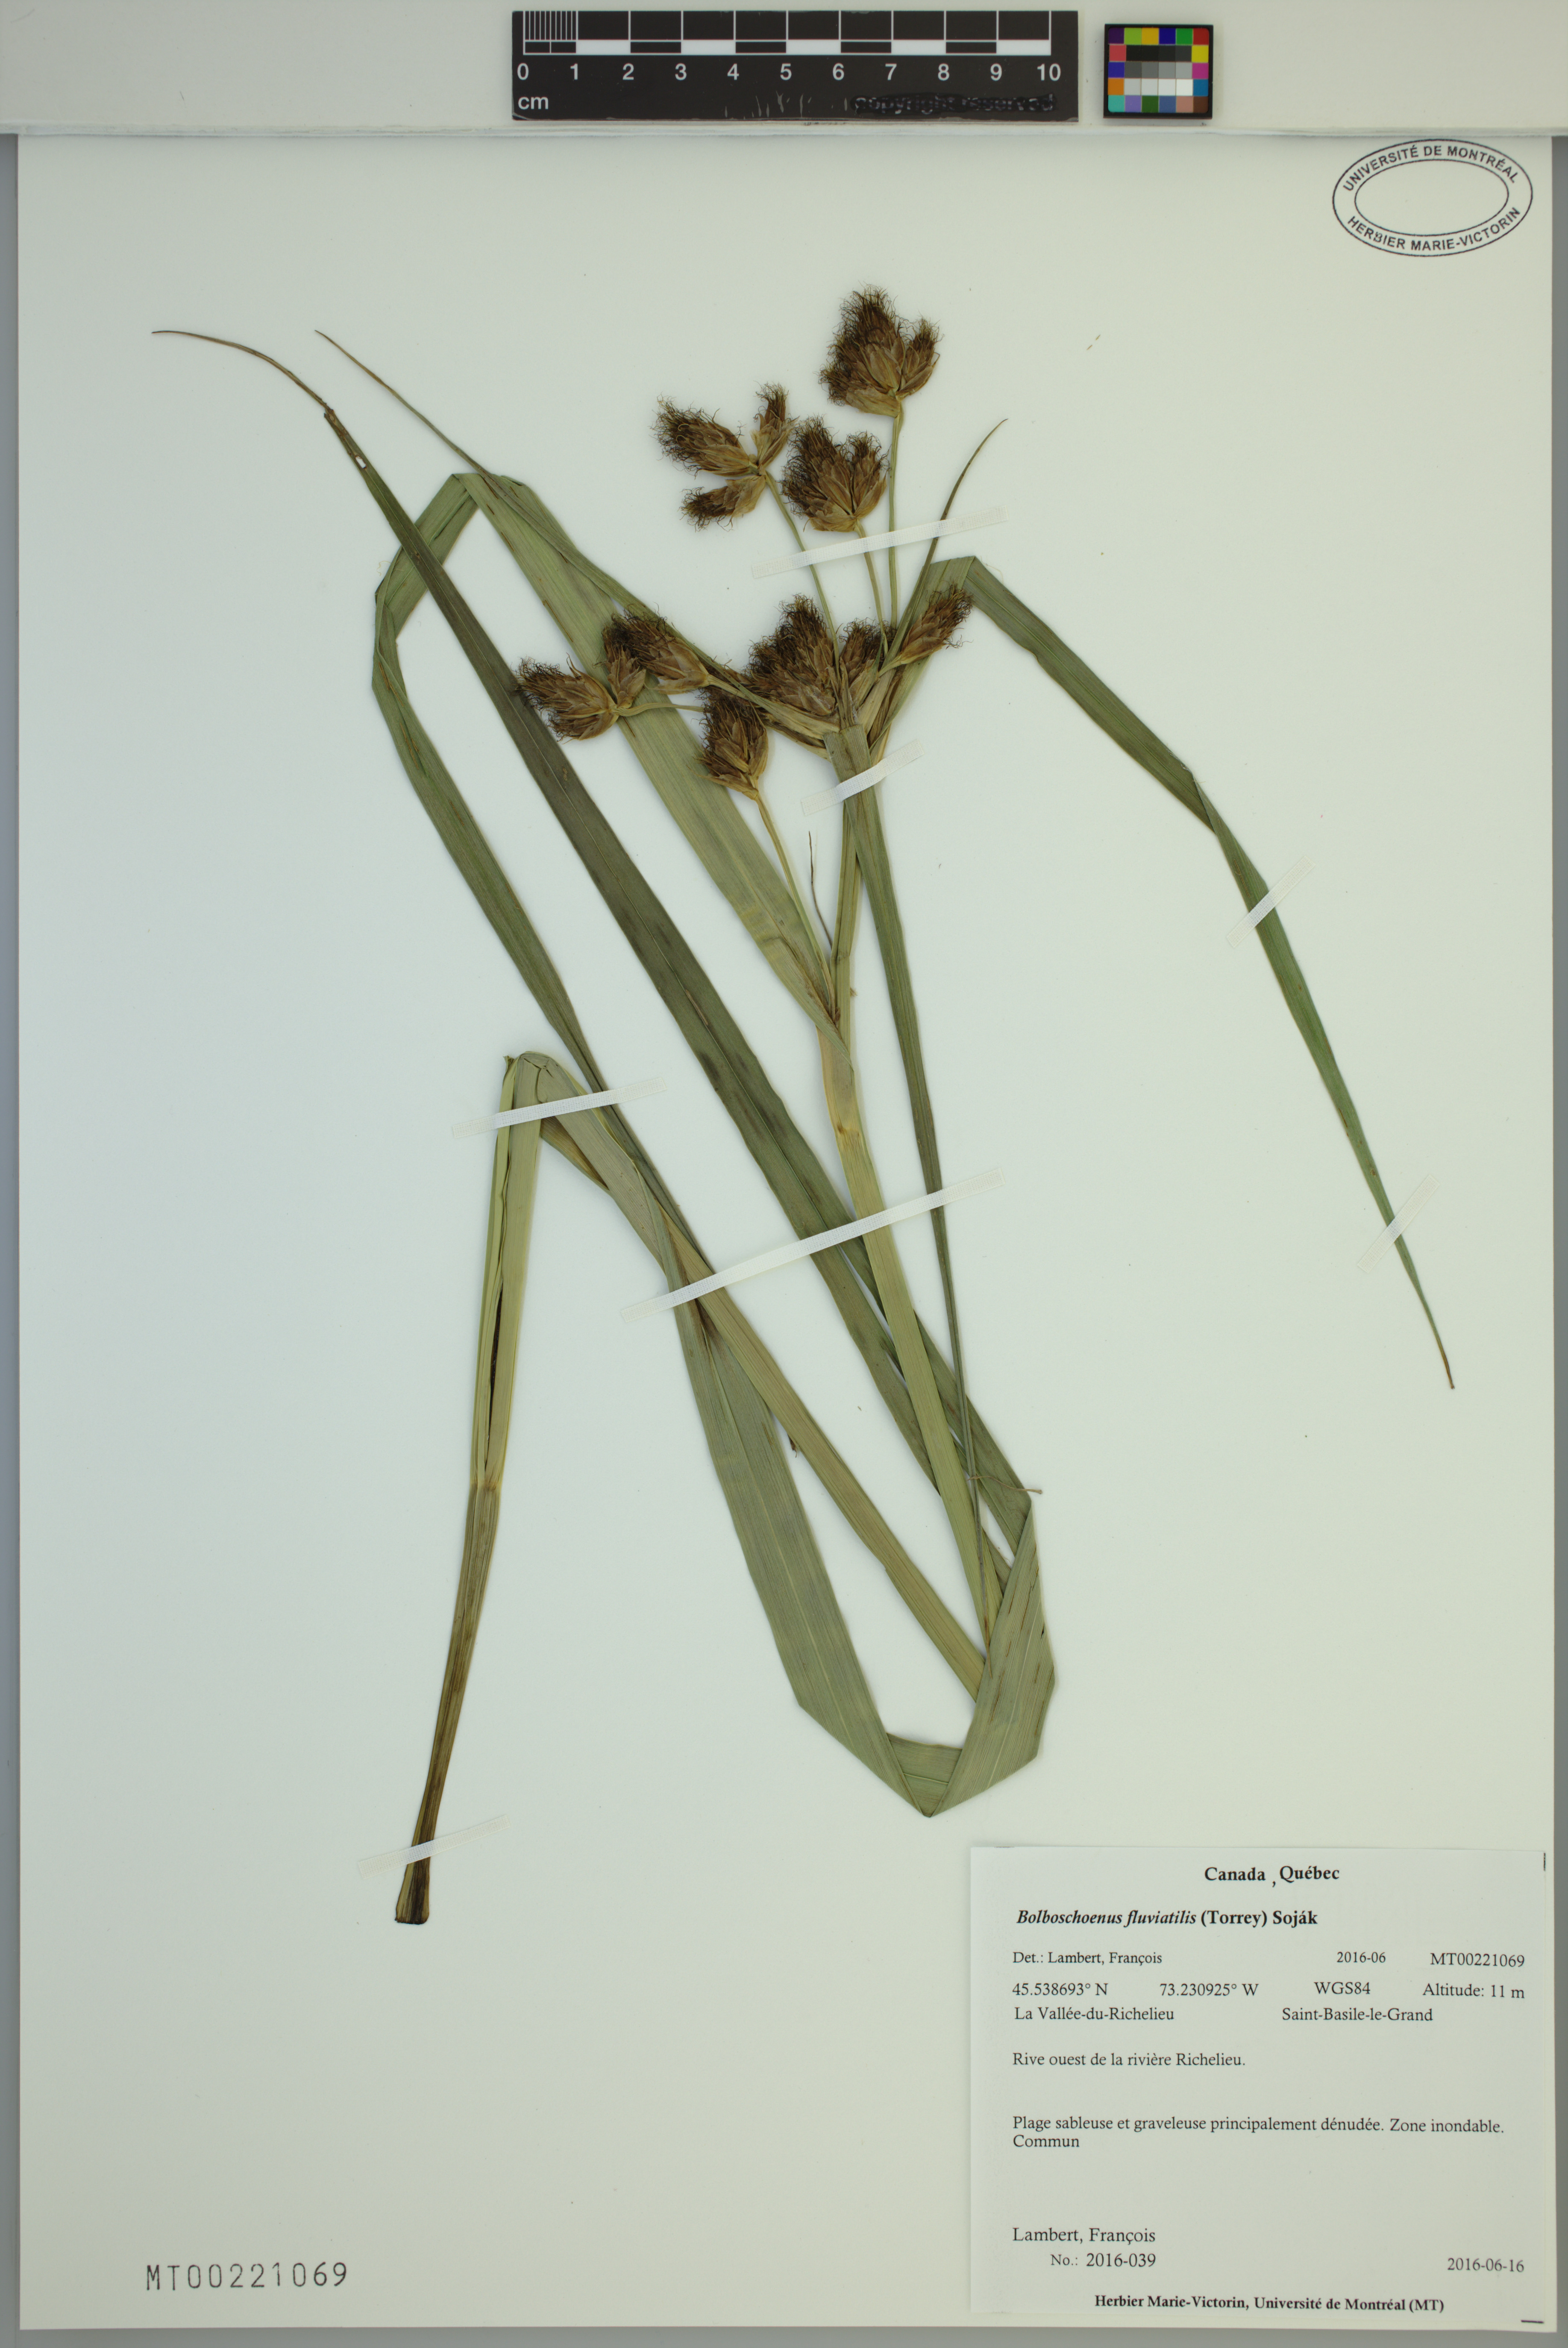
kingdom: Plantae
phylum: Tracheophyta
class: Liliopsida
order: Poales
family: Cyperaceae
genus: Bolboschoenus
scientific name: Bolboschoenus fluviatilis
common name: River bulrush
